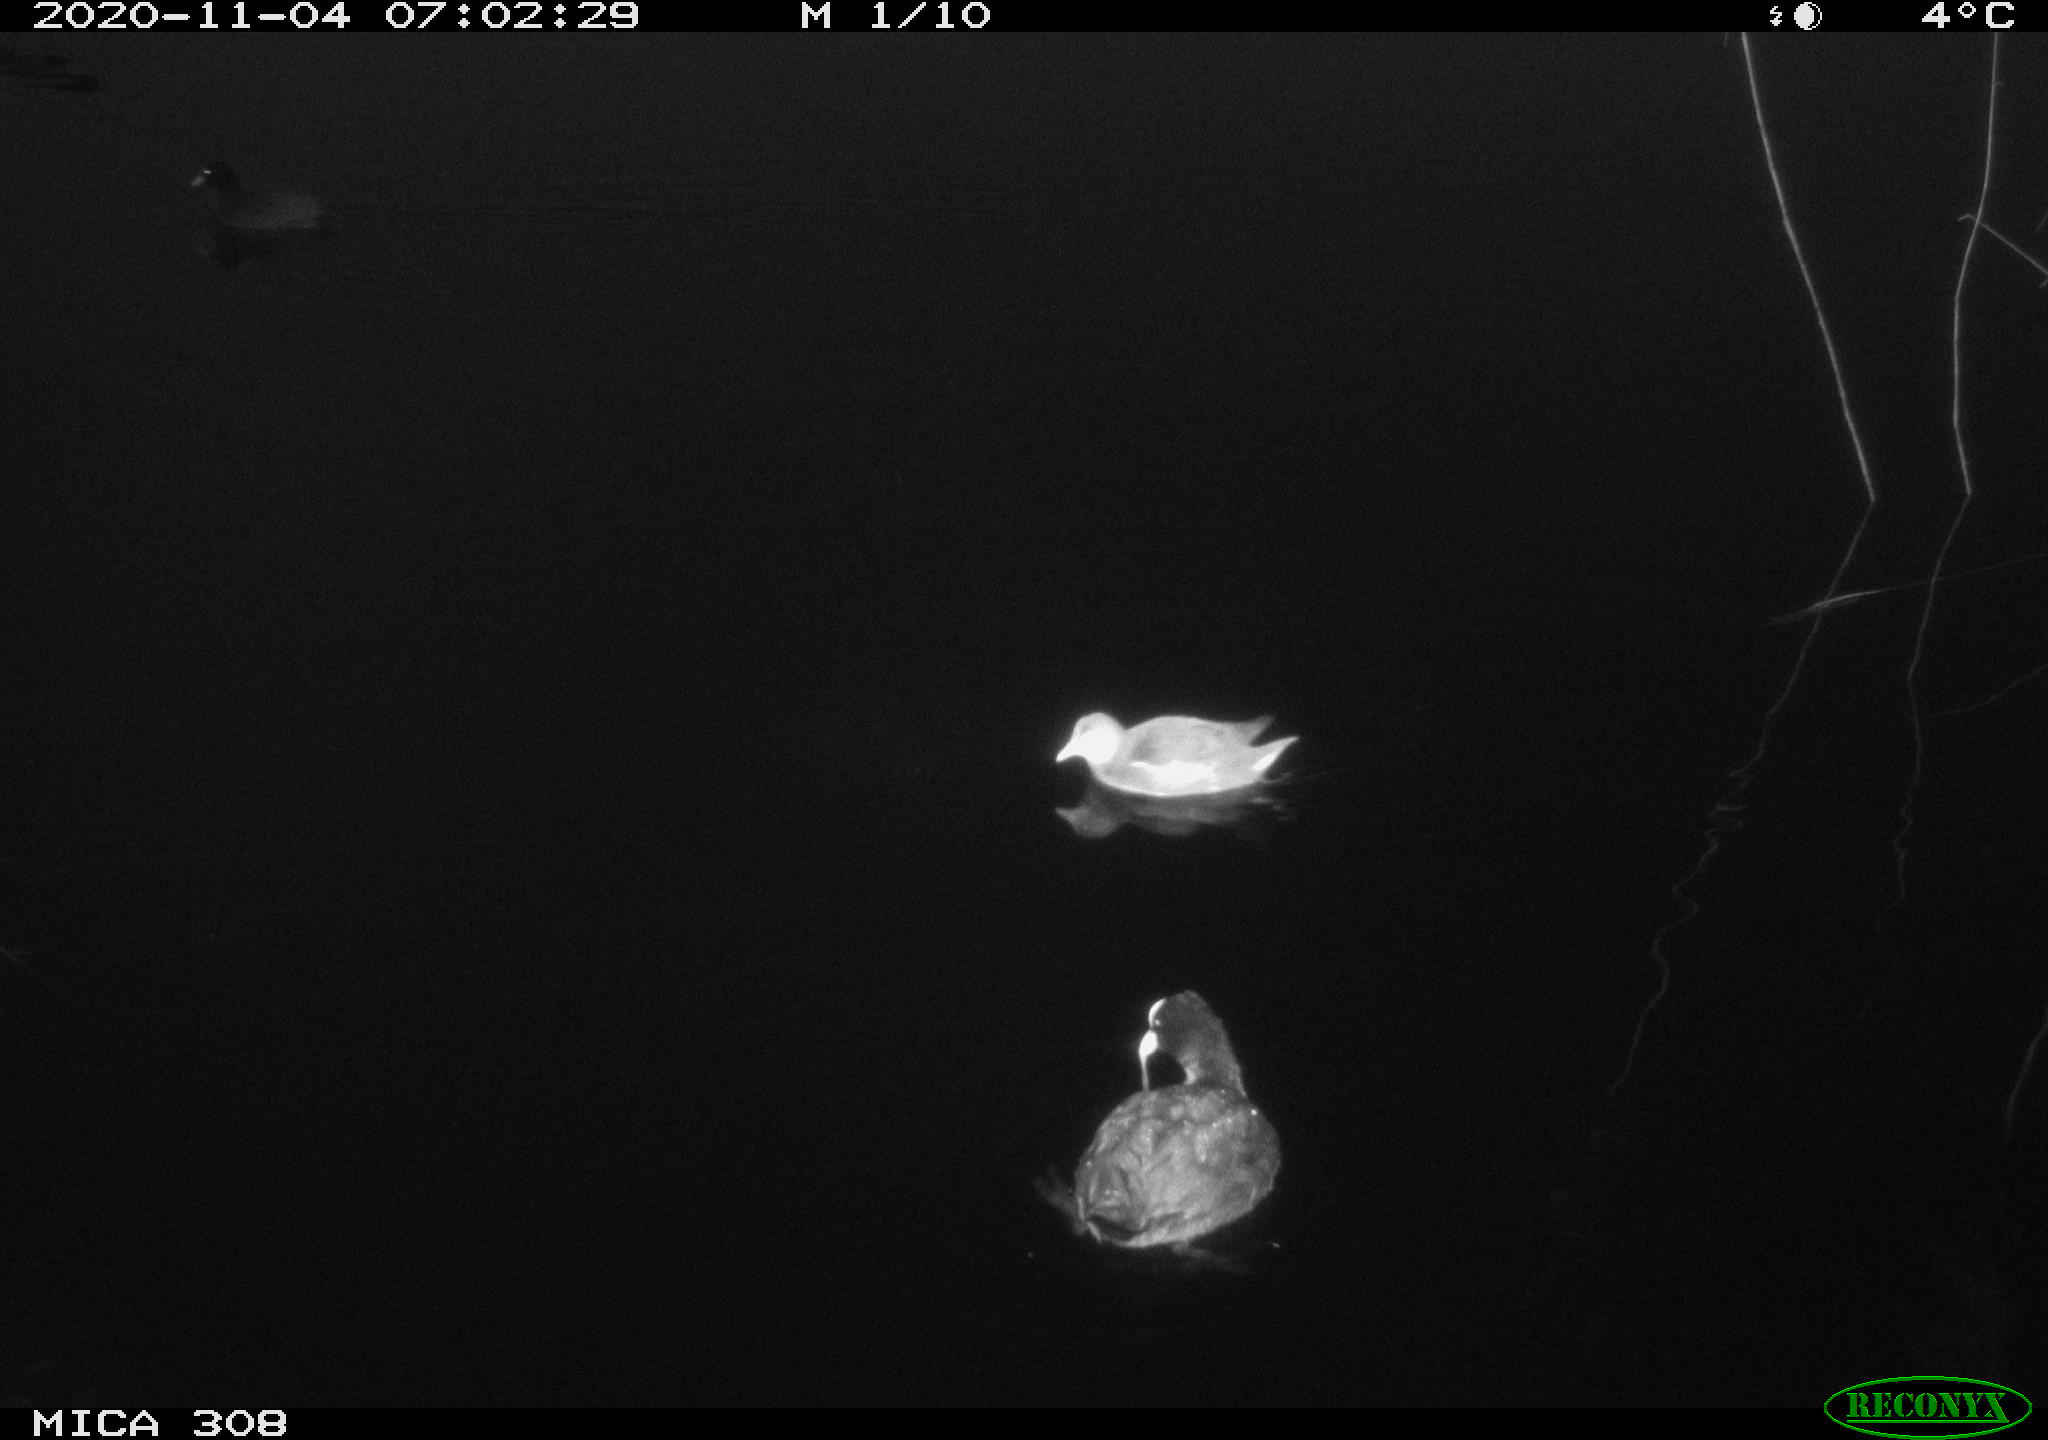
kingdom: Animalia
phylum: Chordata
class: Aves
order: Gruiformes
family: Rallidae
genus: Fulica
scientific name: Fulica atra
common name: Eurasian coot
